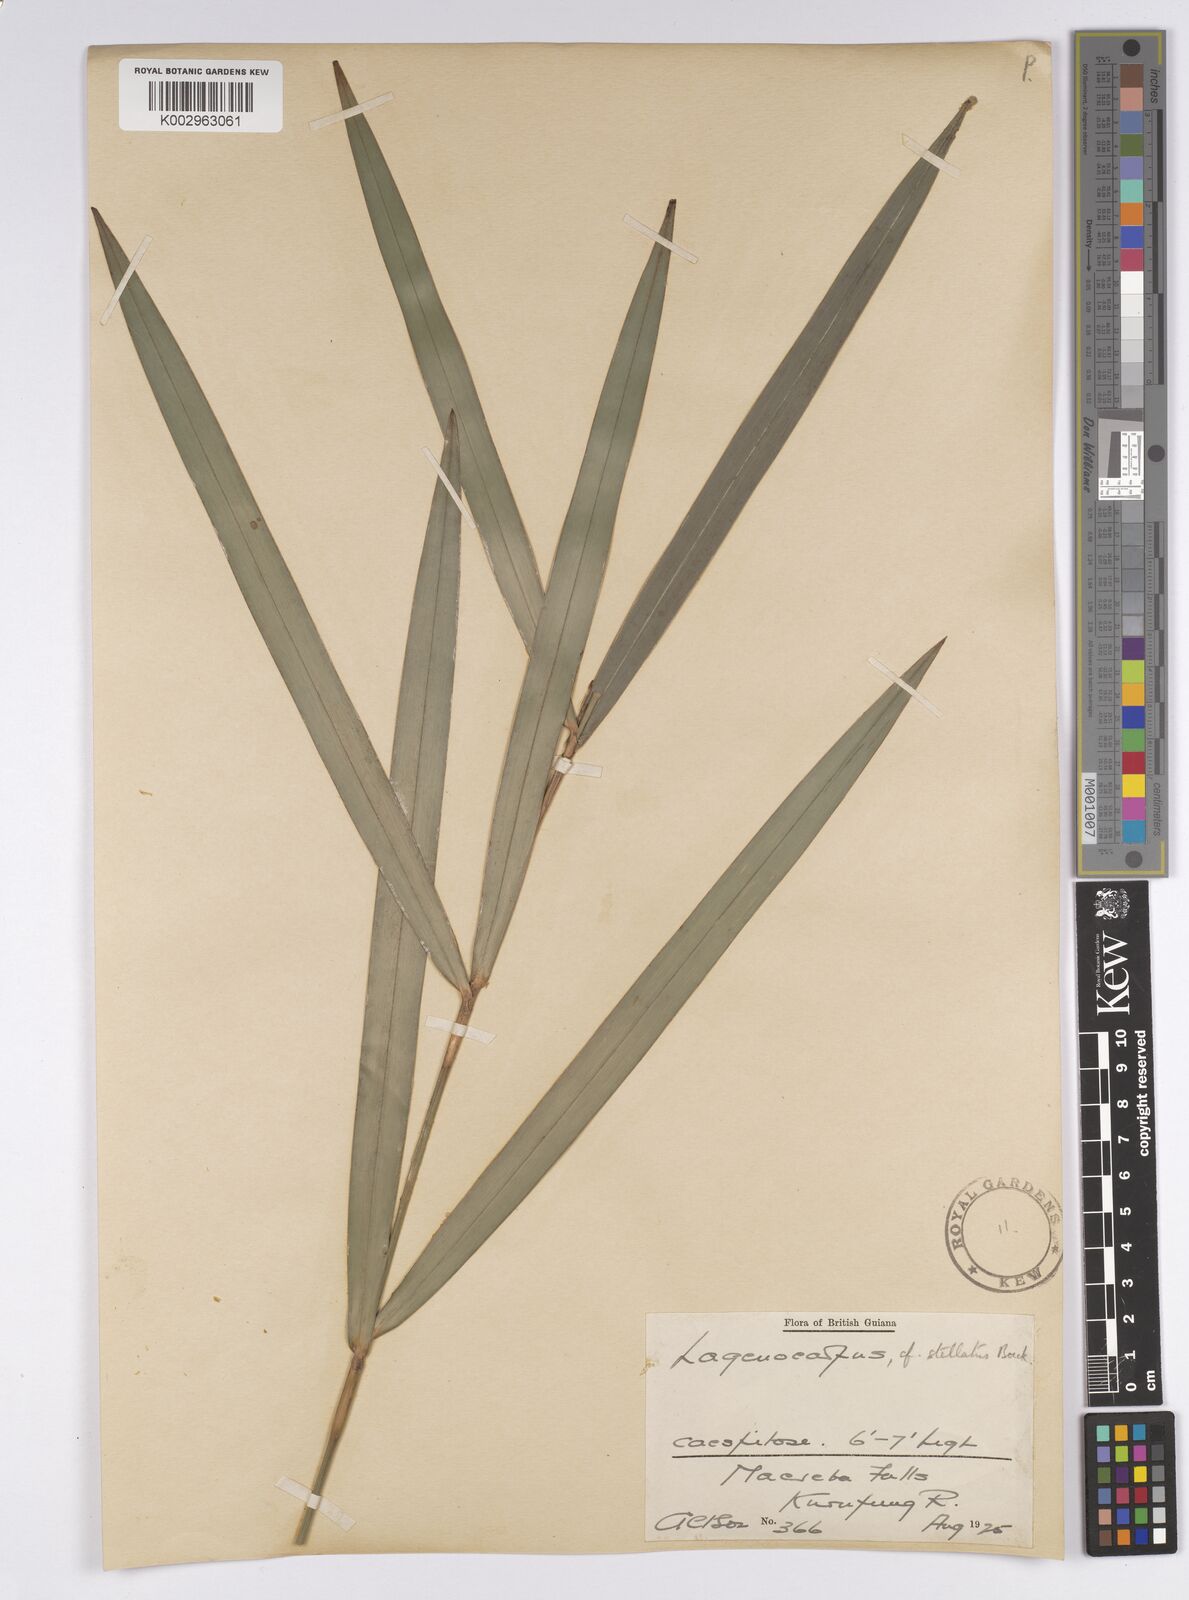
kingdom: Plantae
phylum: Tracheophyta
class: Liliopsida
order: Poales
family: Cyperaceae
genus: Didymiandrum
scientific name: Didymiandrum stellatum
